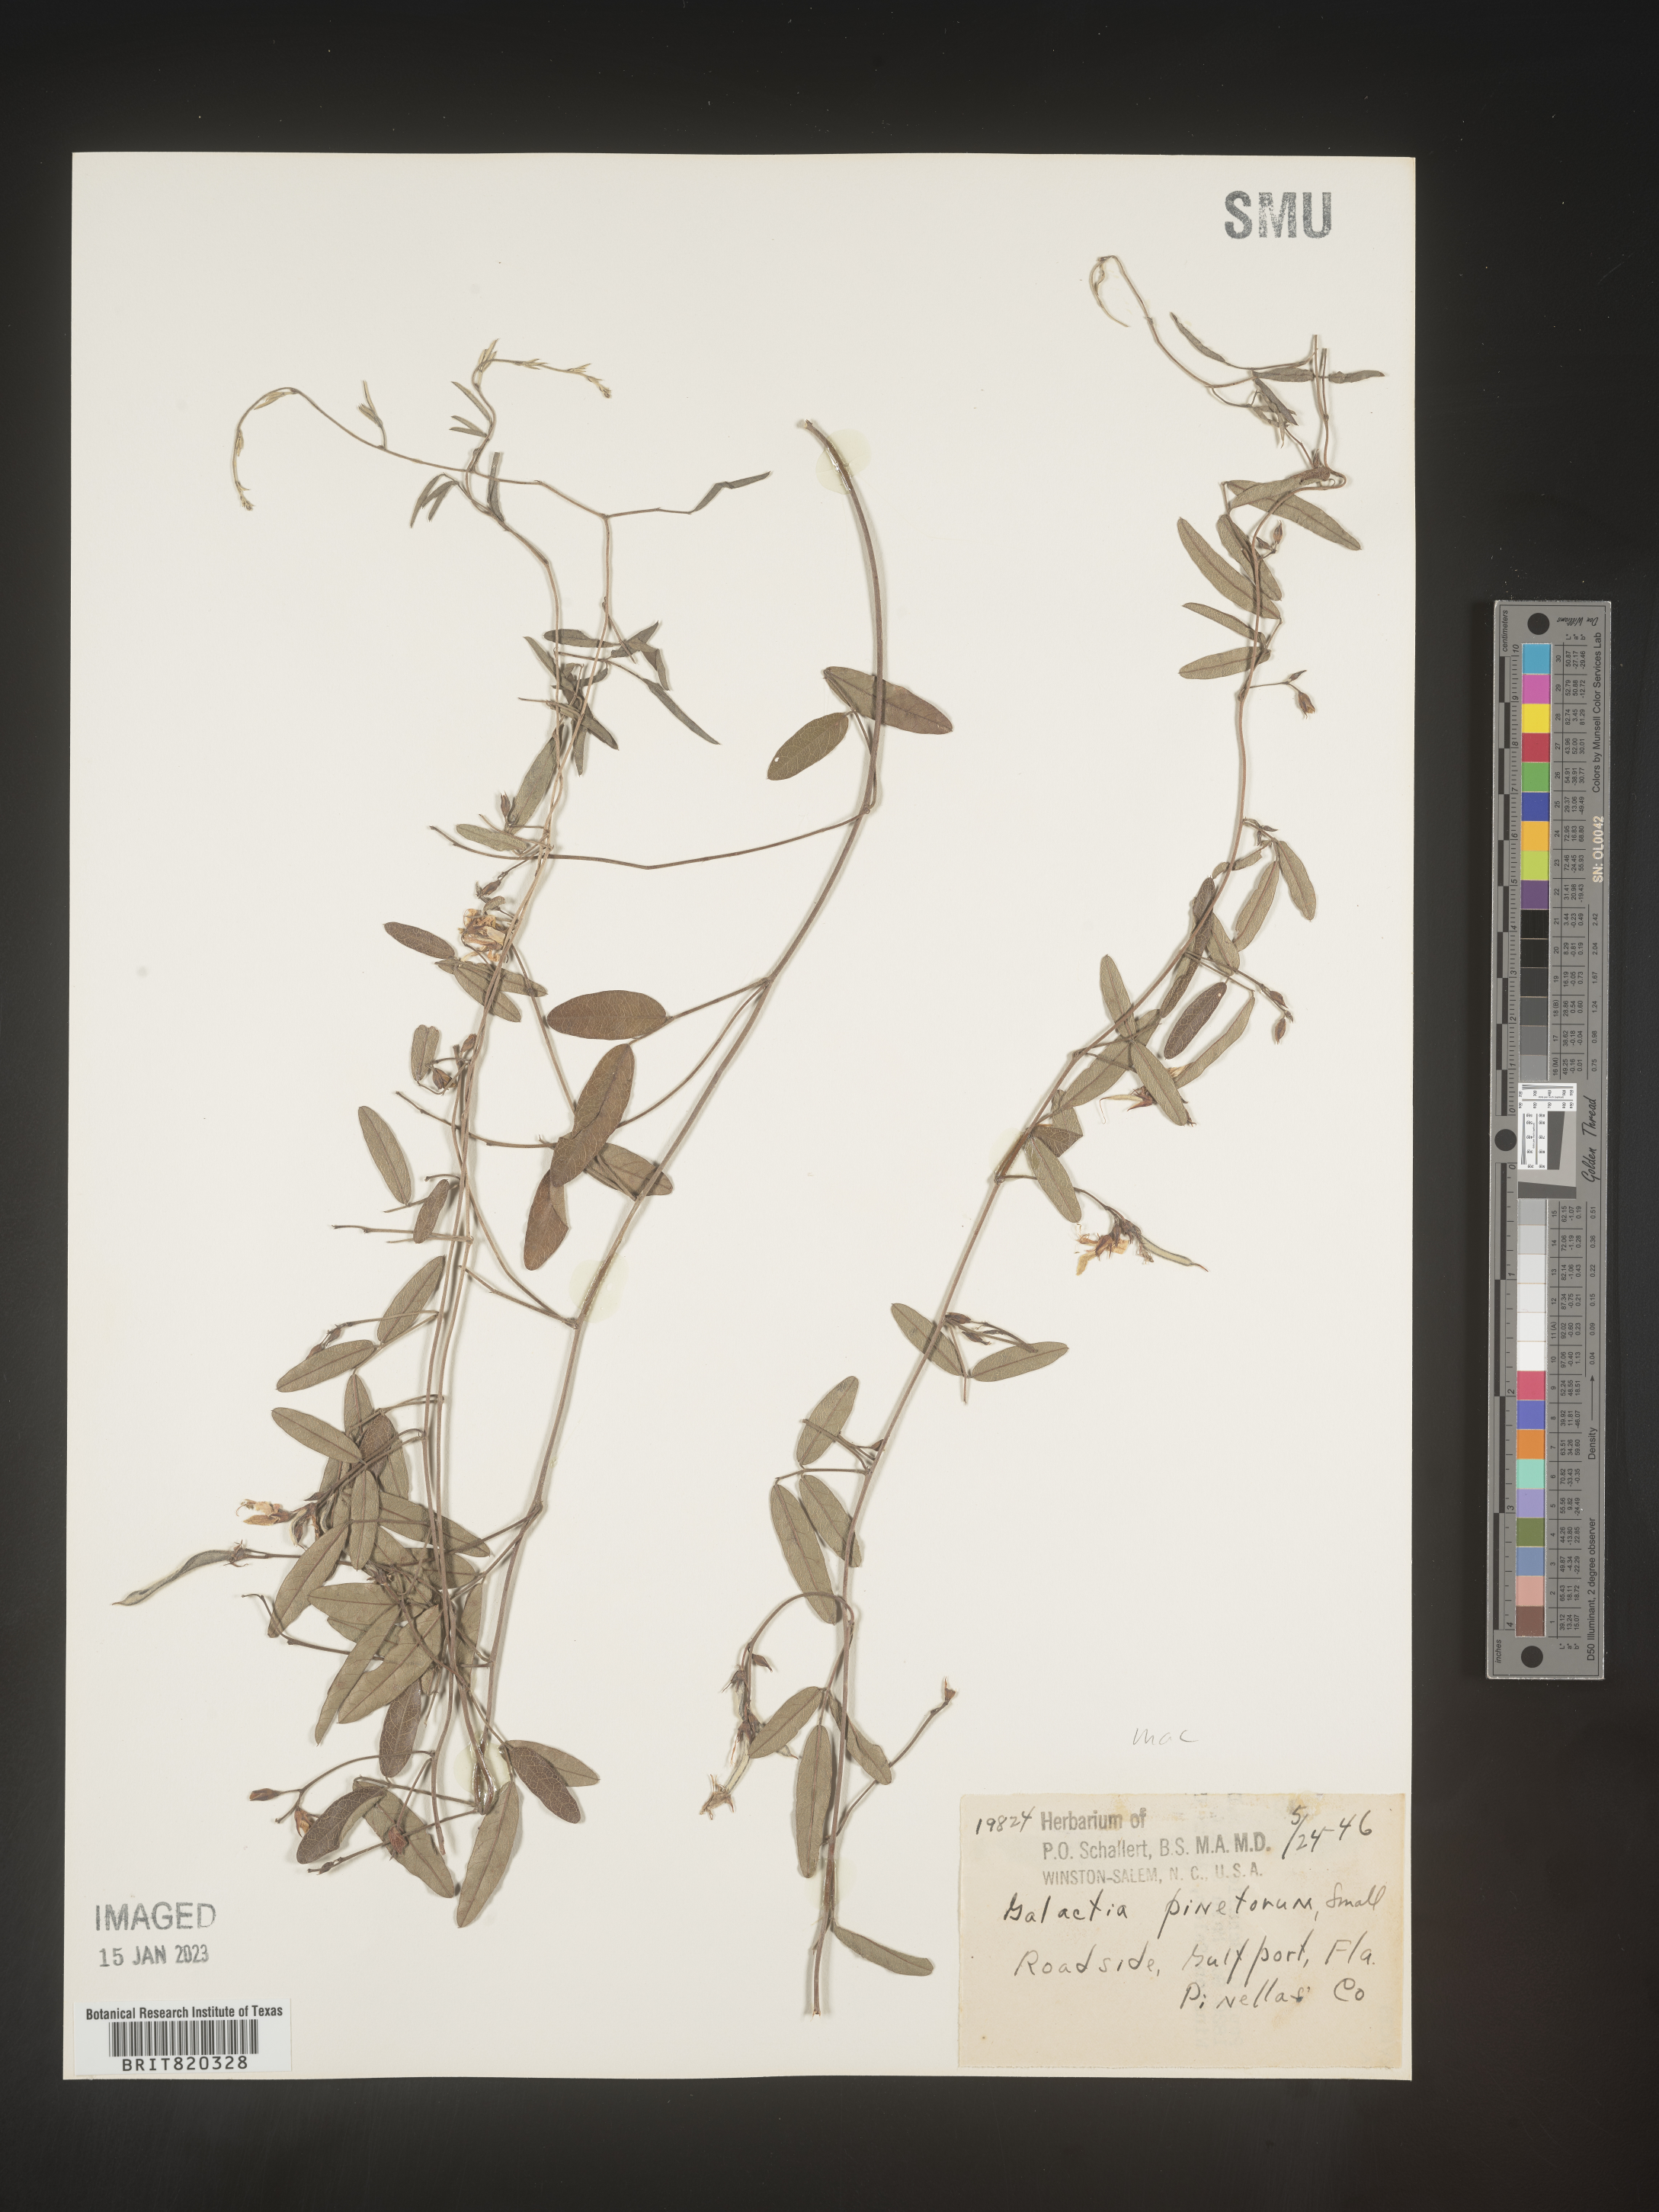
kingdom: Plantae
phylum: Tracheophyta
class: Magnoliopsida
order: Fabales
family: Fabaceae
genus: Galactia
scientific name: Galactia regularis
